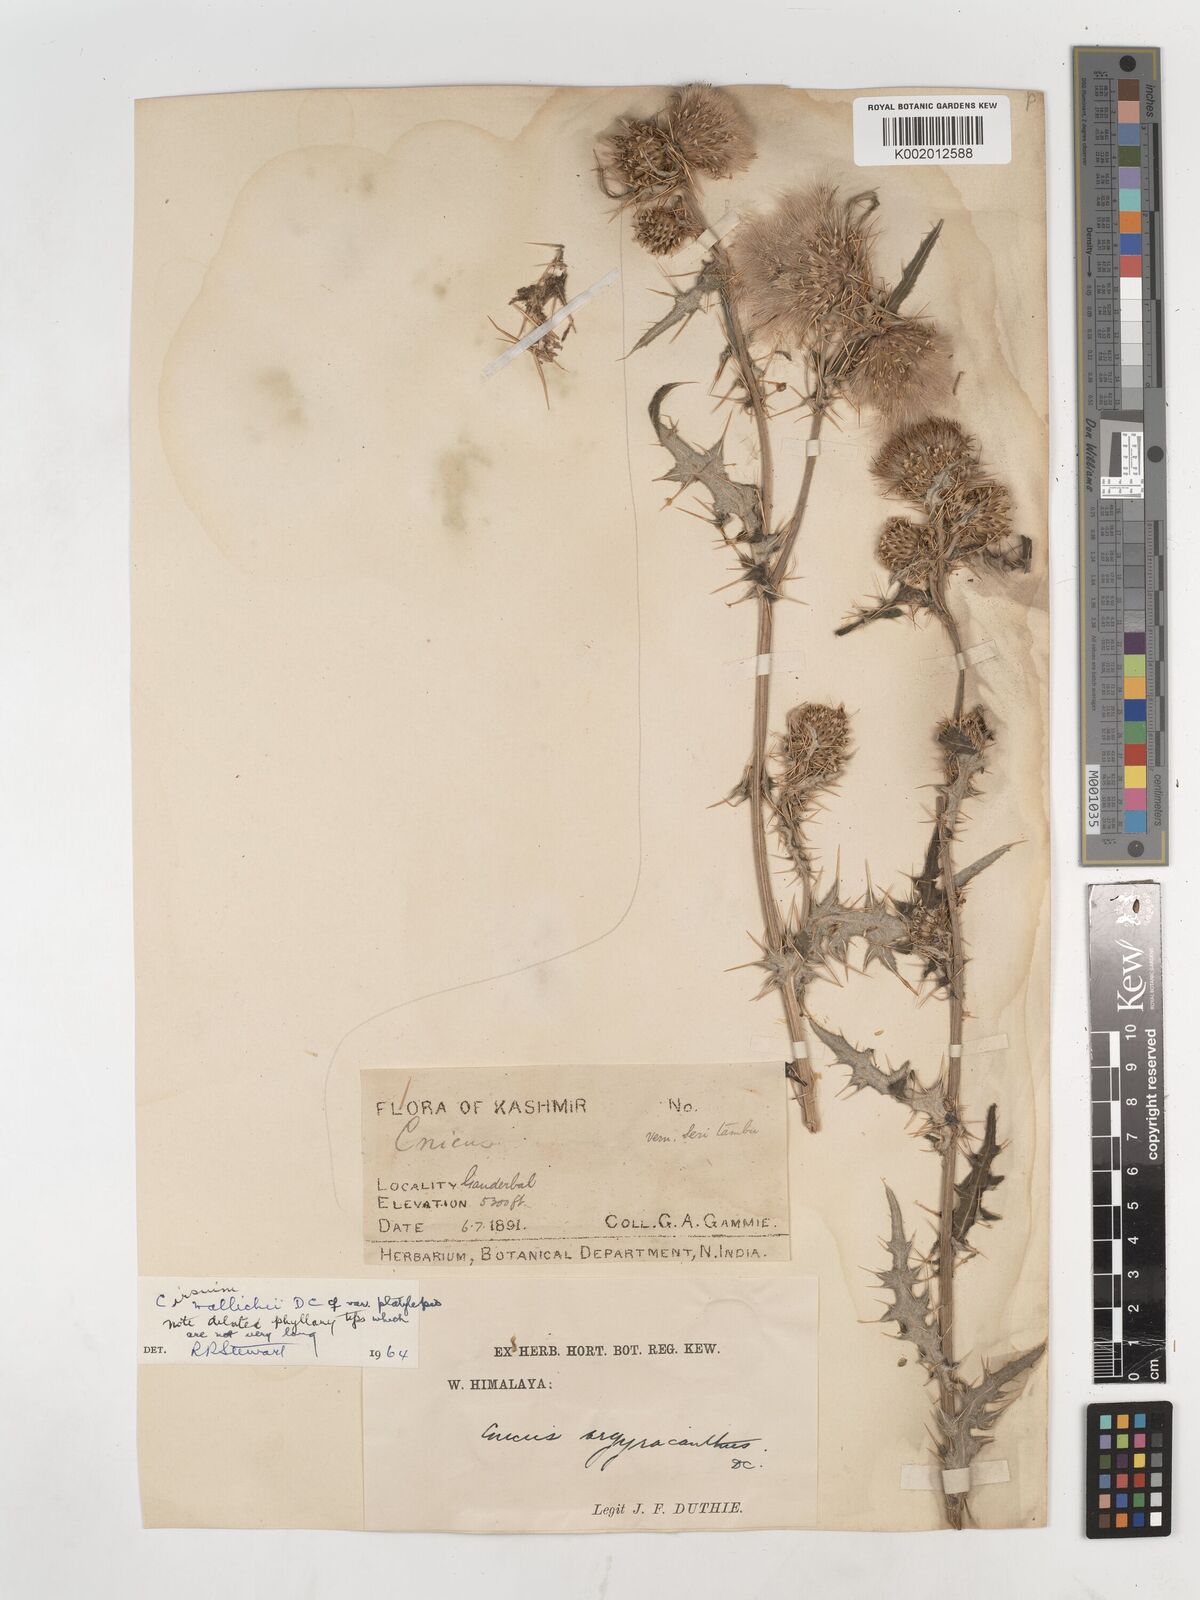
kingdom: Plantae
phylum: Tracheophyta
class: Magnoliopsida
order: Asterales
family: Asteraceae
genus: Cirsium
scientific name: Cirsium wallichii
